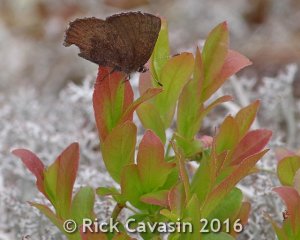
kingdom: Animalia
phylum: Arthropoda
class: Insecta
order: Lepidoptera
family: Lycaenidae
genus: Incisalia
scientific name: Incisalia irioides
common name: Brown Elfin
